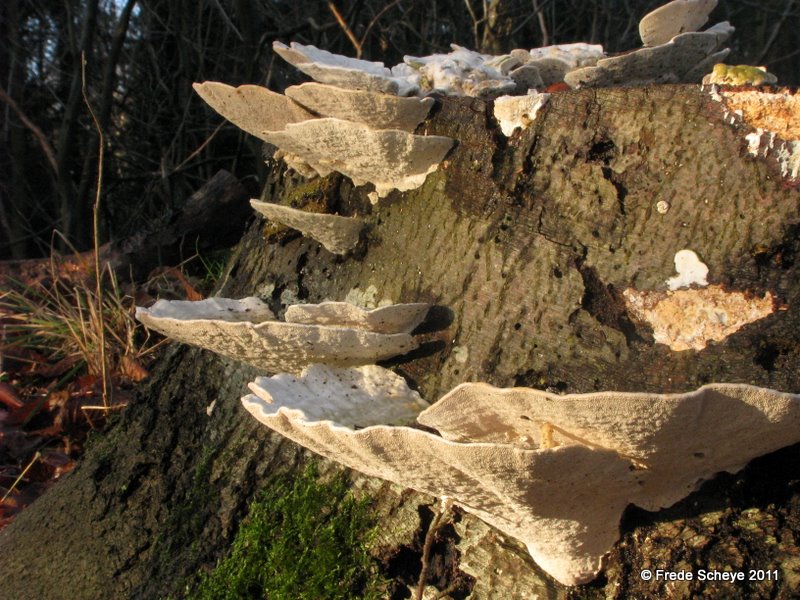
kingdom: Fungi
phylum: Basidiomycota
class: Agaricomycetes
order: Polyporales
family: Polyporaceae
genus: Trametes
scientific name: Trametes gibbosa
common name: puklet læderporesvamp
